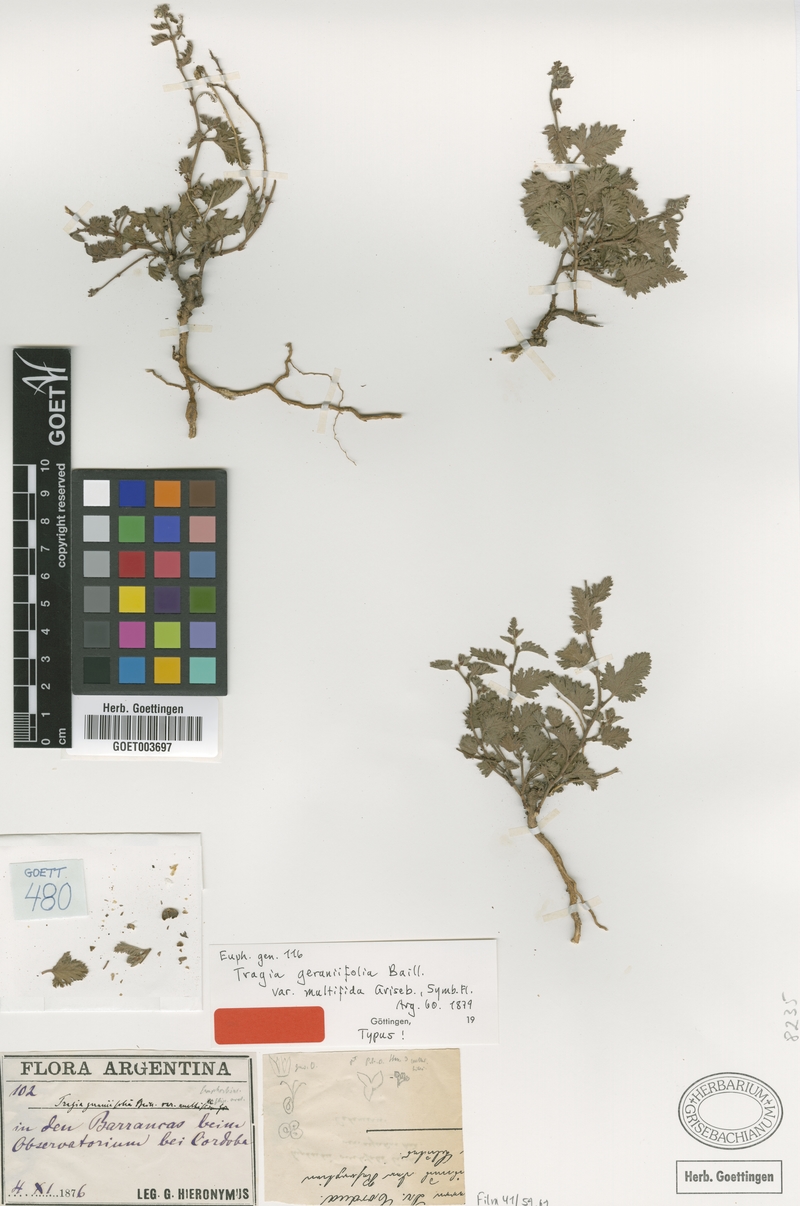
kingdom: Plantae
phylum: Tracheophyta
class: Magnoliopsida
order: Malpighiales
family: Euphorbiaceae
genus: Tragia
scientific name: Tragia geraniifolia
